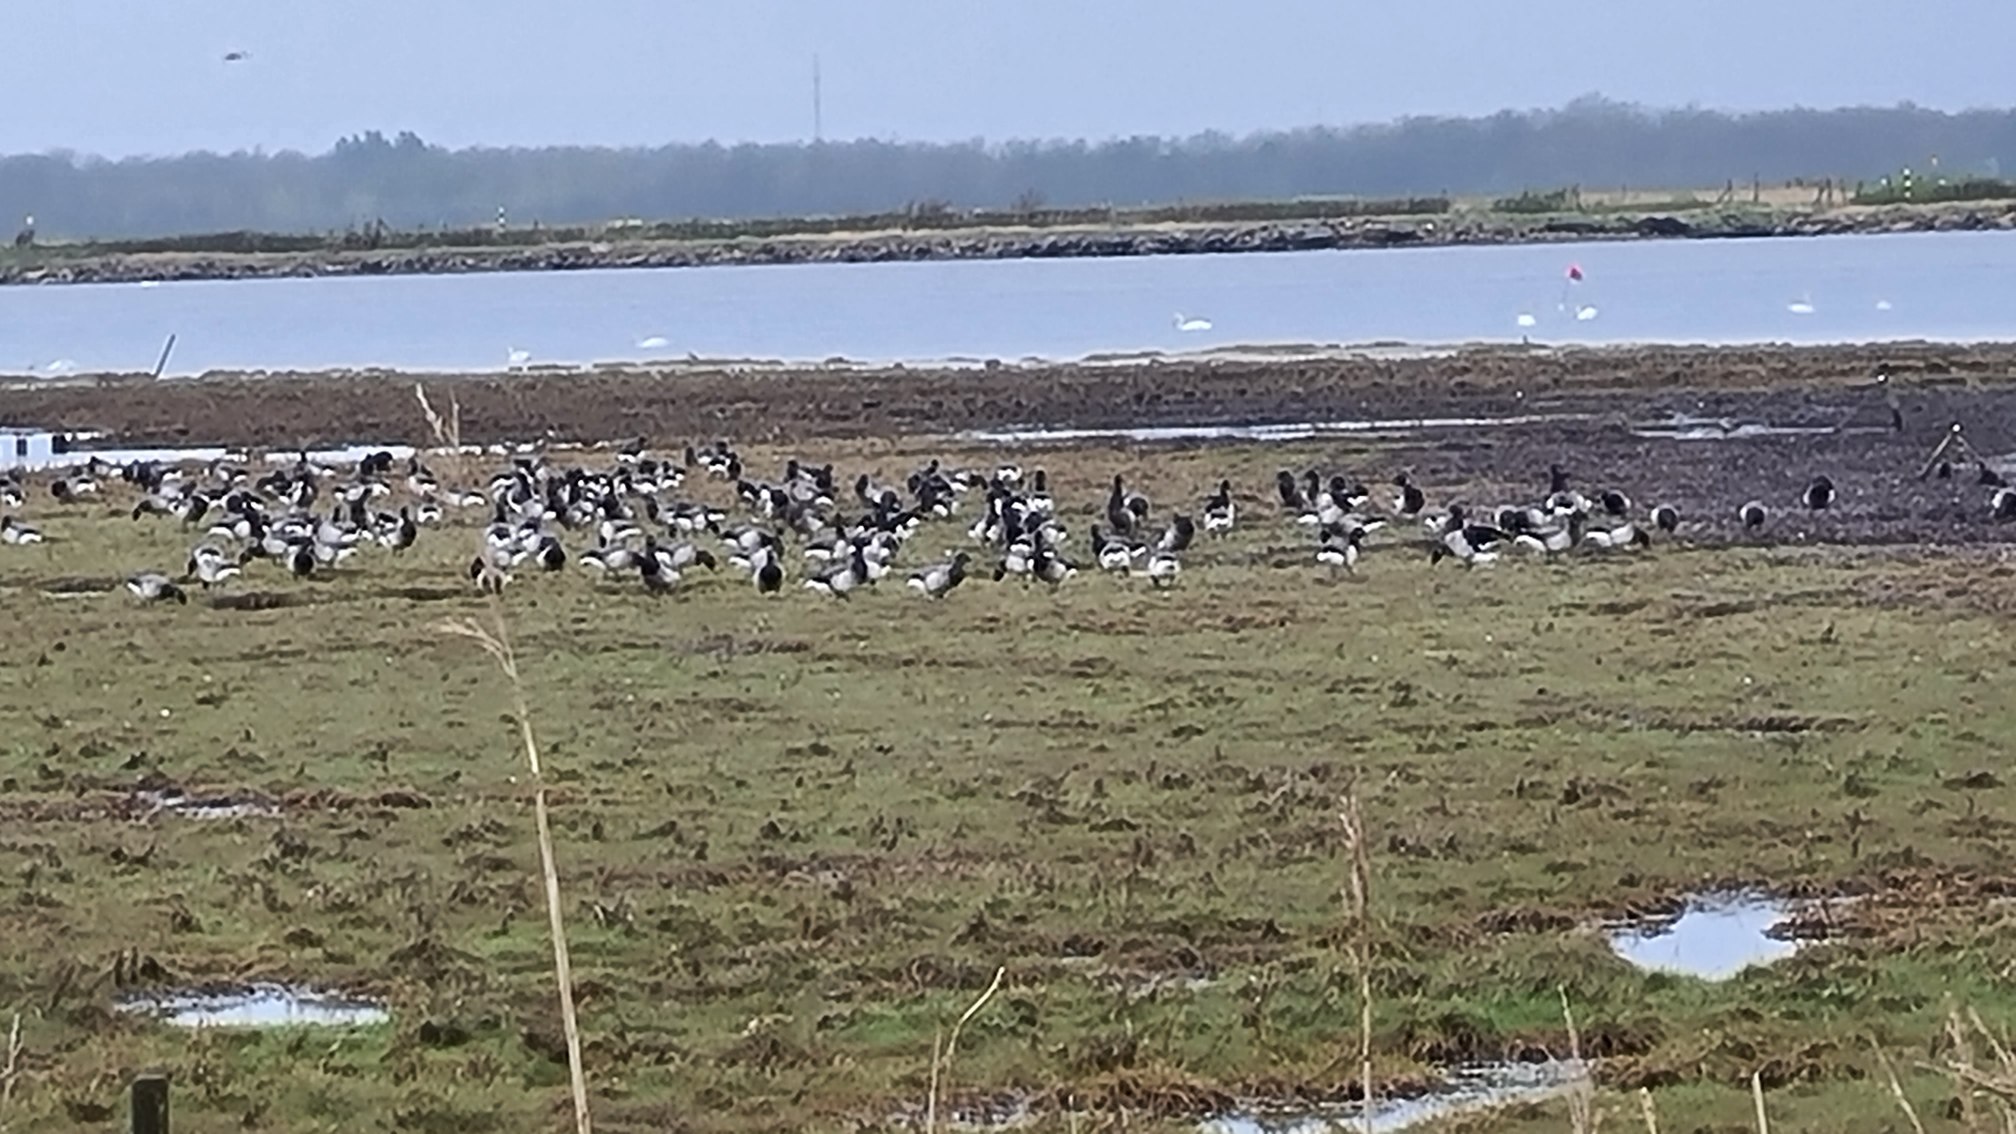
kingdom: Animalia
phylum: Chordata
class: Aves
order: Anseriformes
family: Anatidae
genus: Branta
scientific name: Branta bernicla
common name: Lysbuget knortegås
